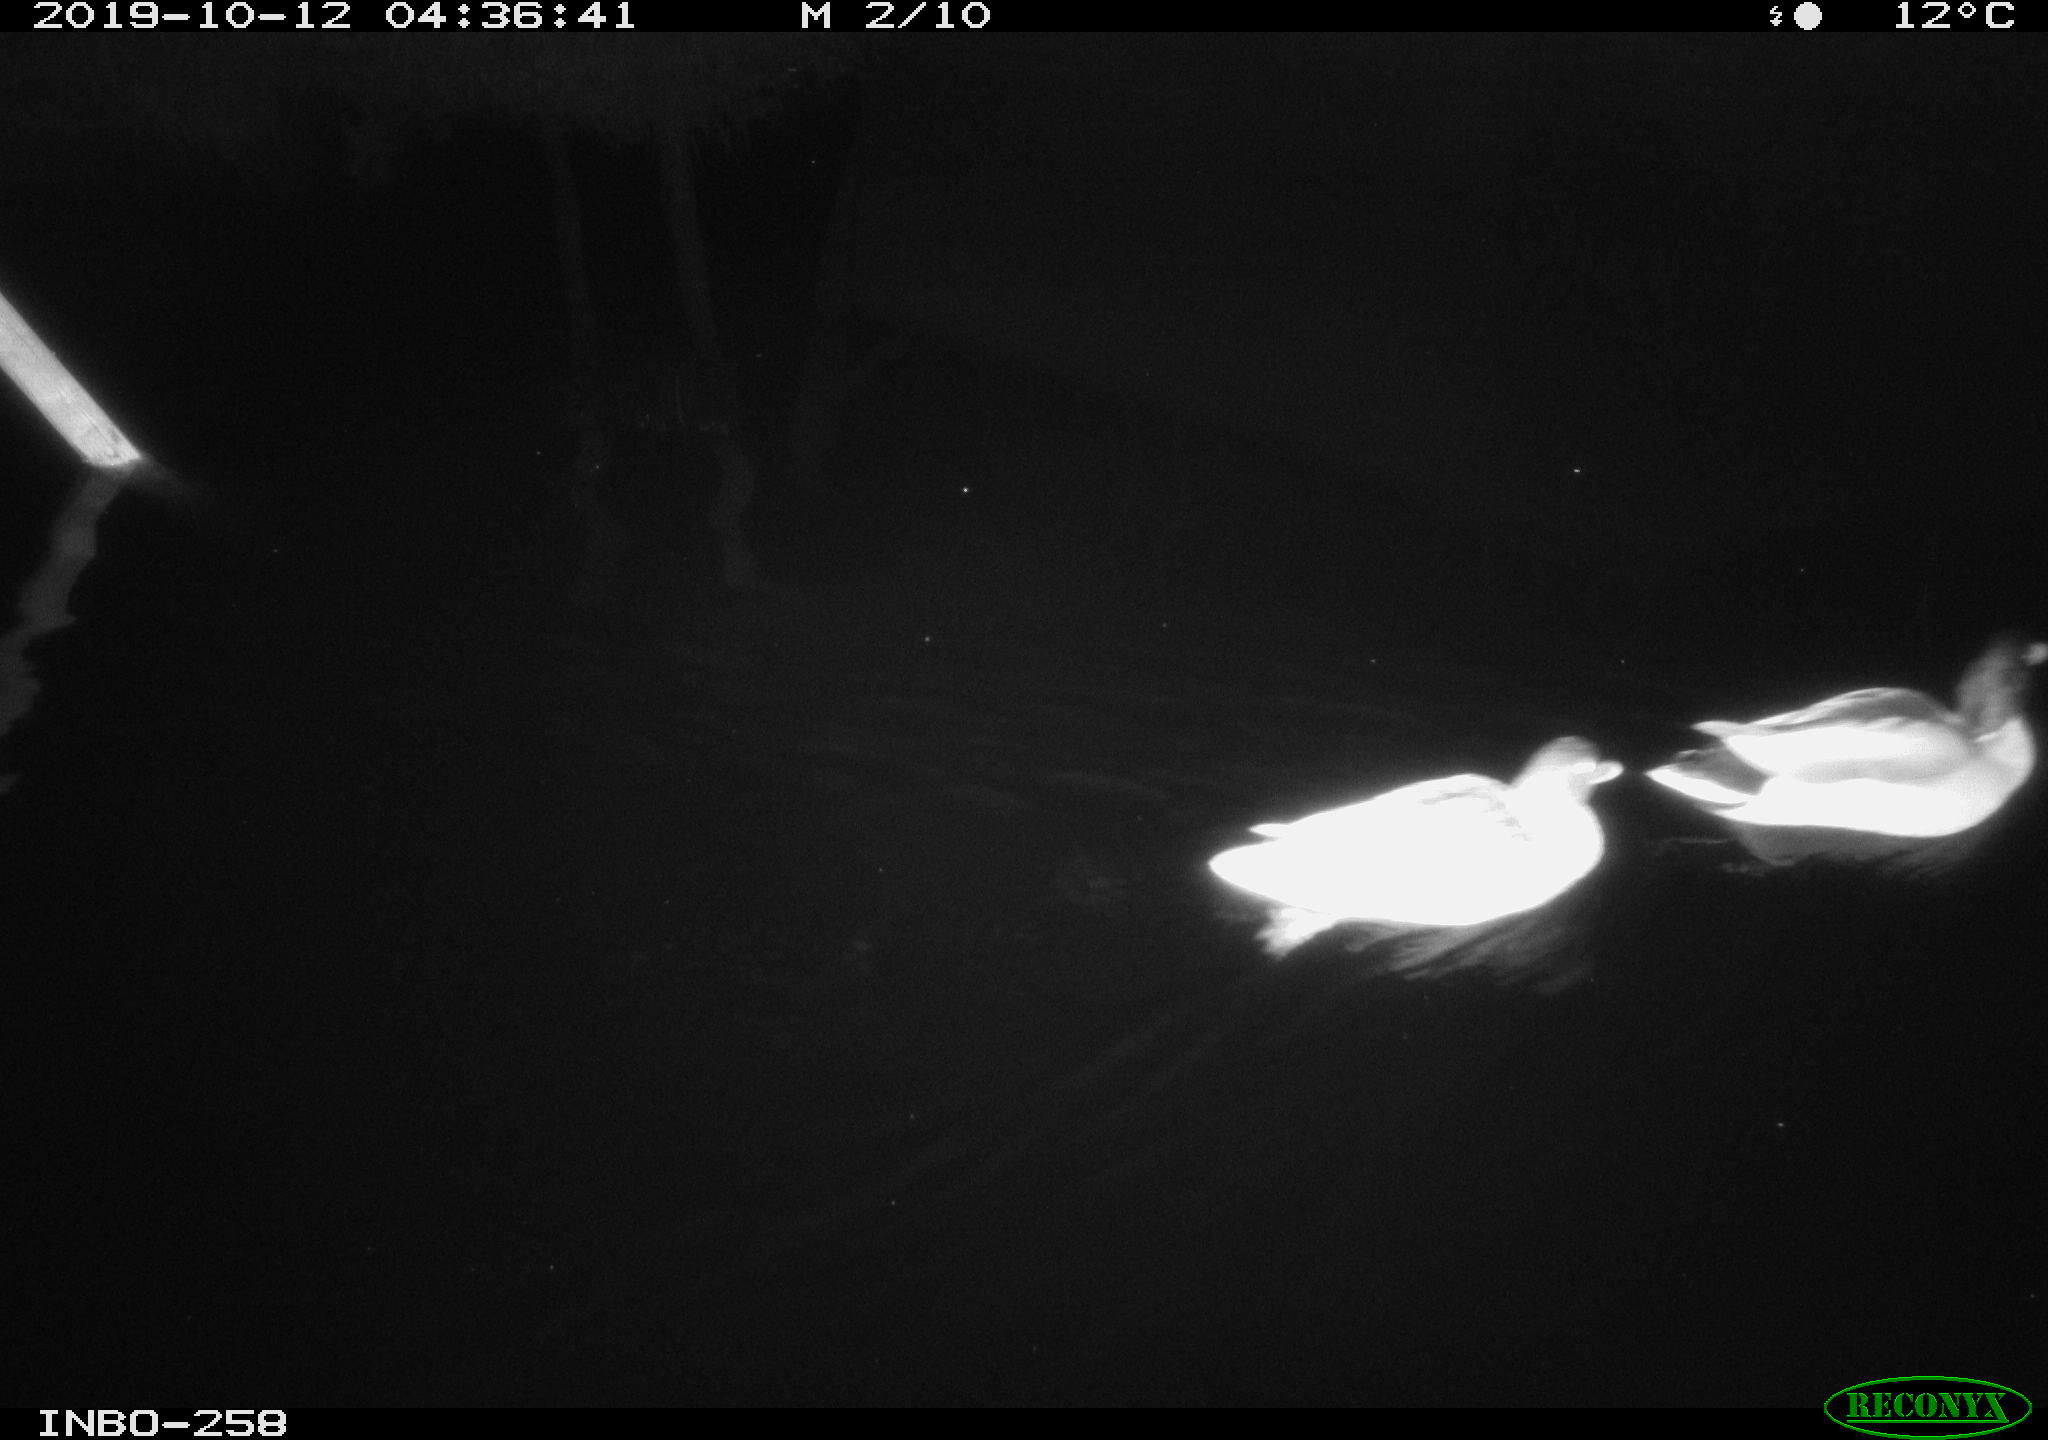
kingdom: Animalia
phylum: Chordata
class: Aves
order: Anseriformes
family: Anatidae
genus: Anas
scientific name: Anas platyrhynchos
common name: Mallard
